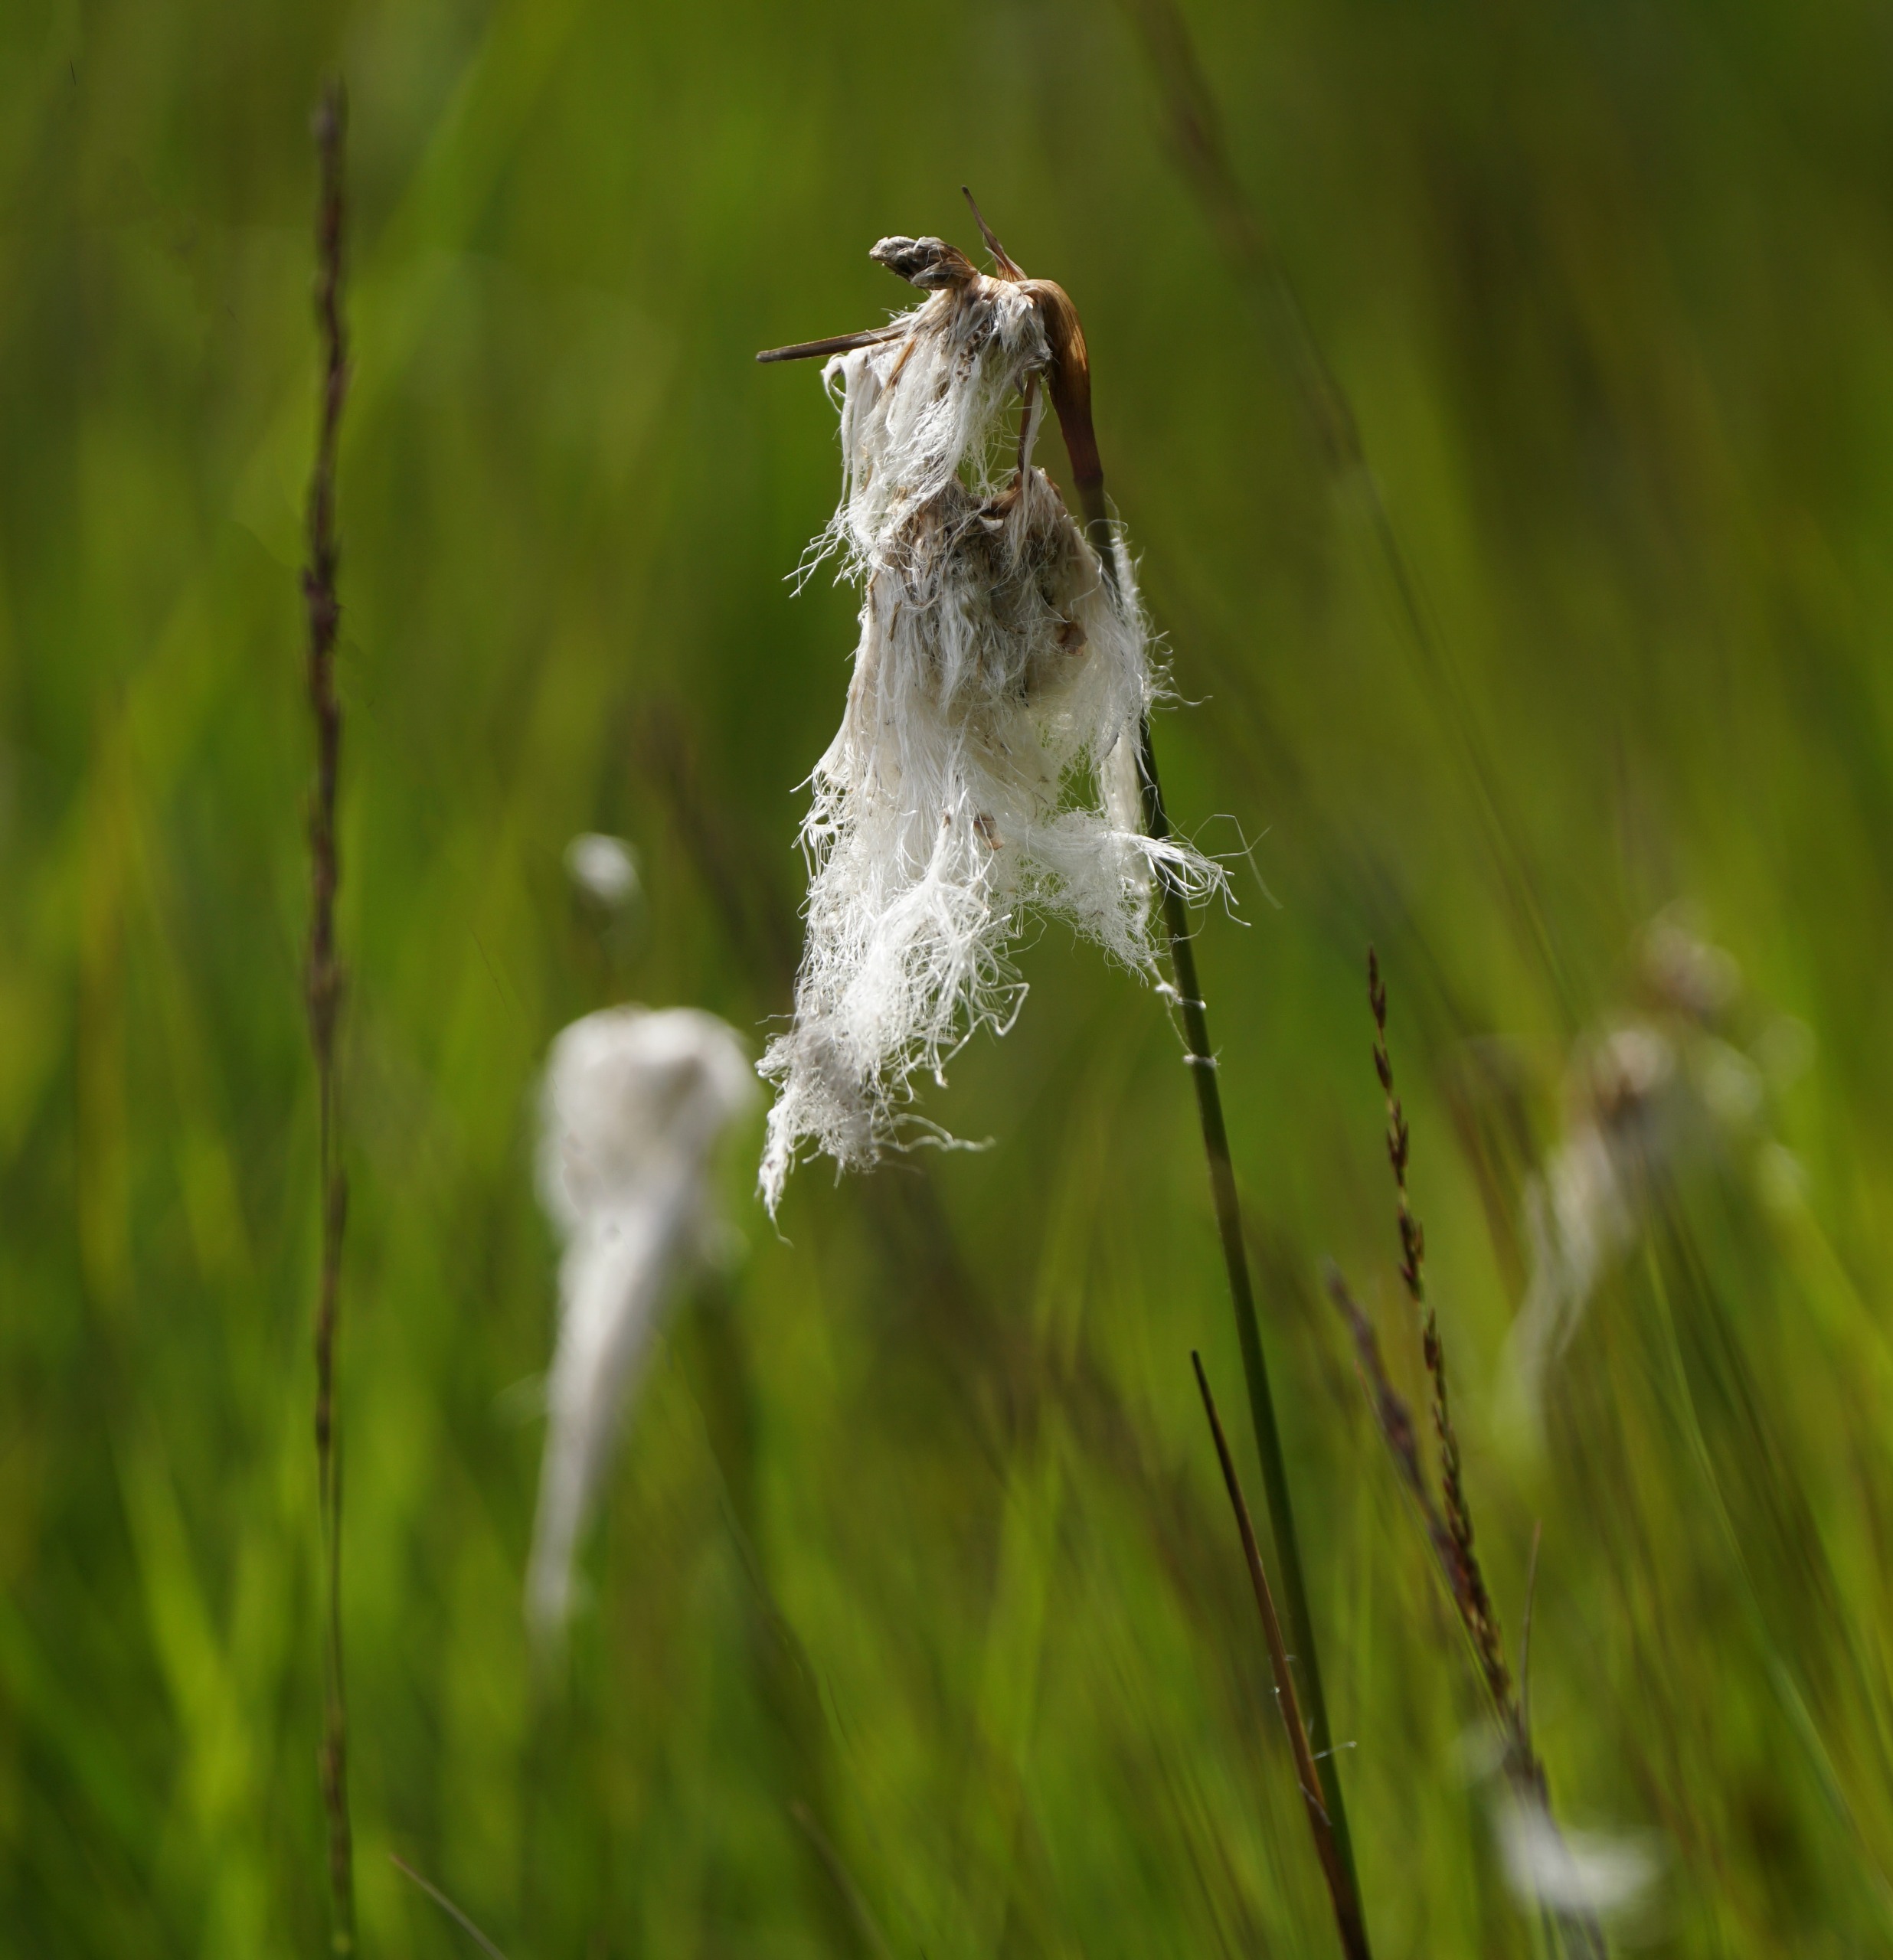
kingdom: Plantae
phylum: Tracheophyta
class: Liliopsida
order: Poales
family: Cyperaceae
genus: Eriophorum
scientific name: Eriophorum angustifolium
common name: Smalbladet kæruld
